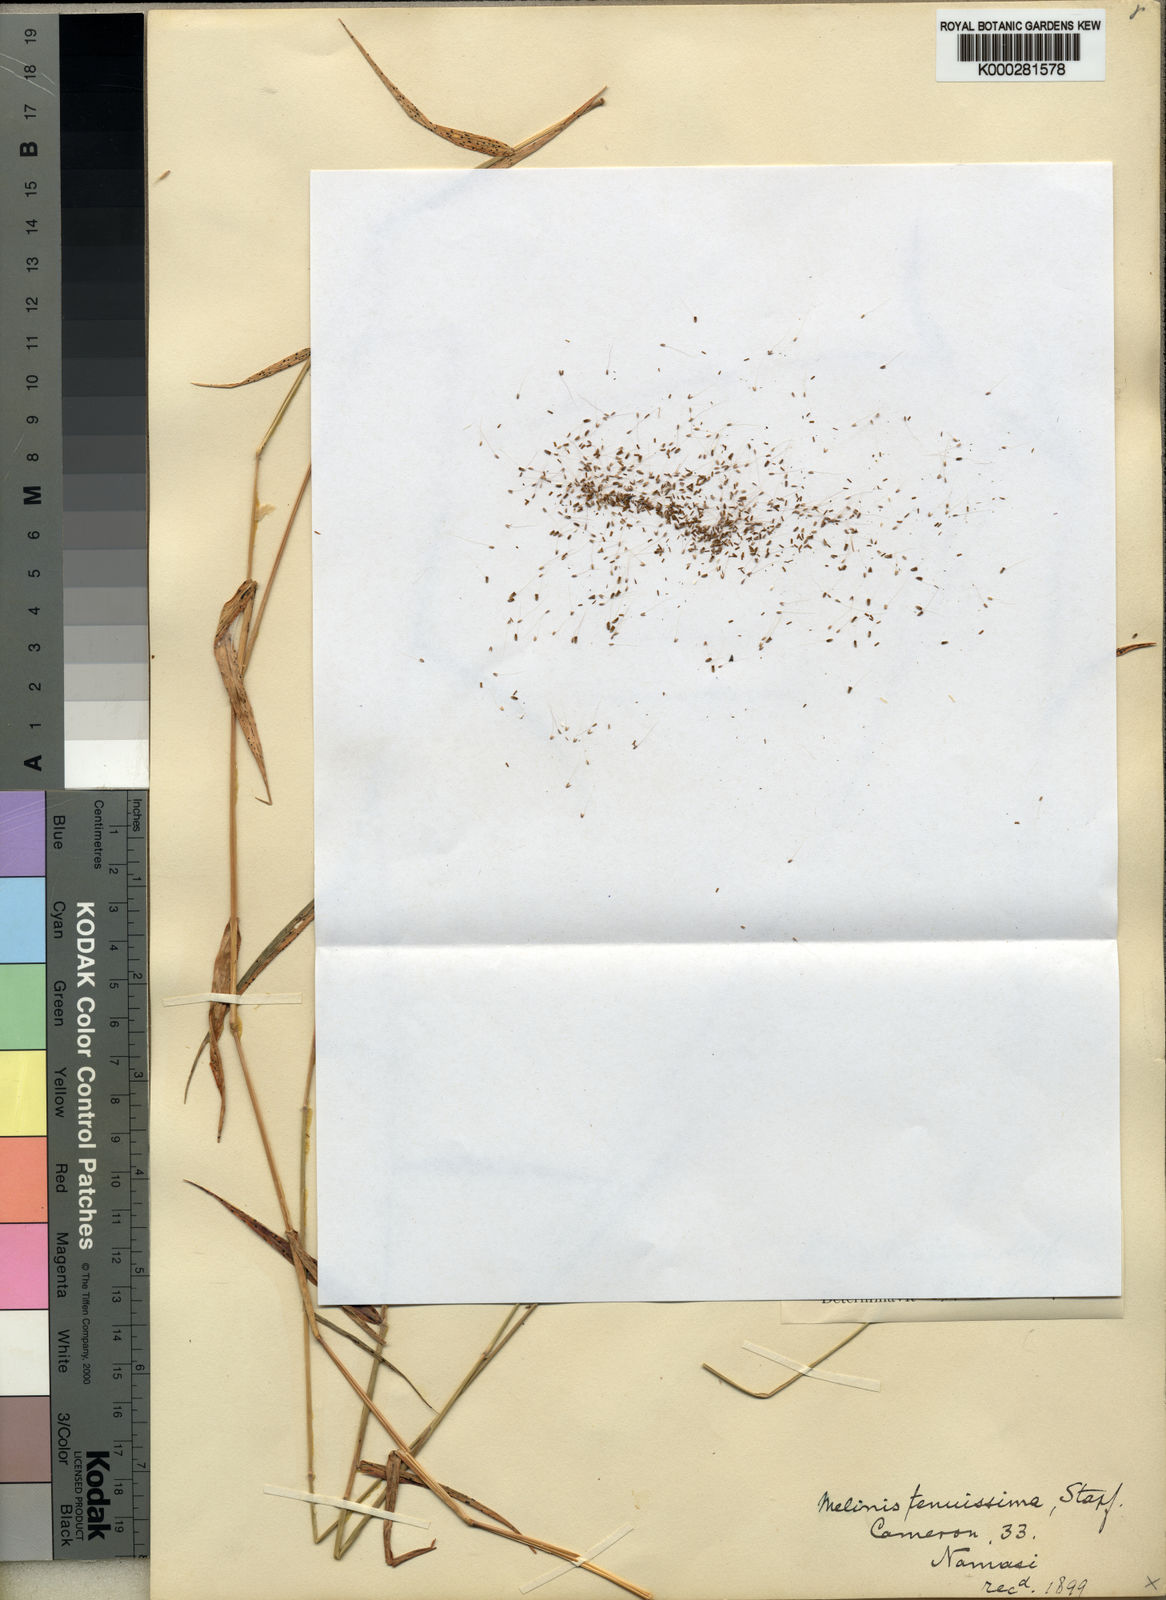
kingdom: Plantae
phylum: Tracheophyta
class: Liliopsida
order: Poales
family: Poaceae
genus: Melinis
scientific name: Melinis tenuissima
